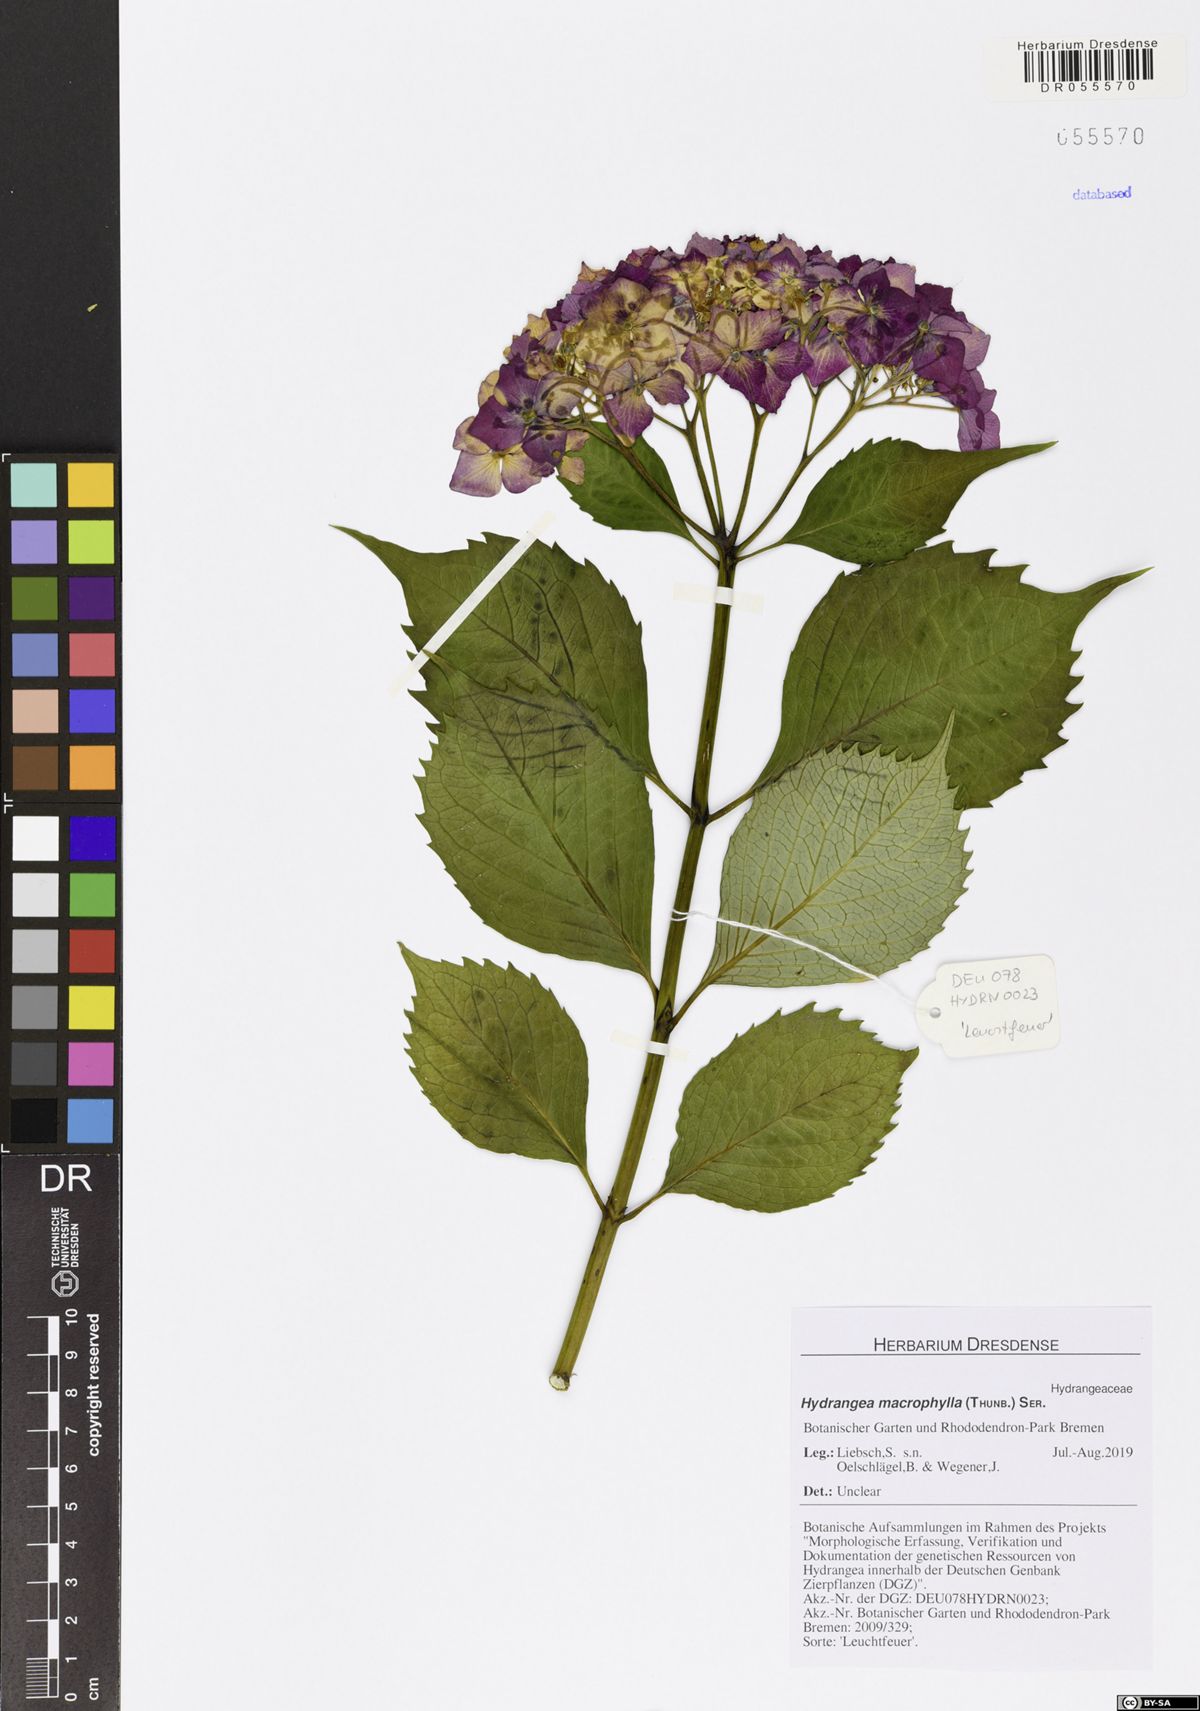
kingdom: Plantae
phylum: Tracheophyta
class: Magnoliopsida
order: Cornales
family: Hydrangeaceae
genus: Hydrangea
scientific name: Hydrangea macrophylla
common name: Hydrangea
